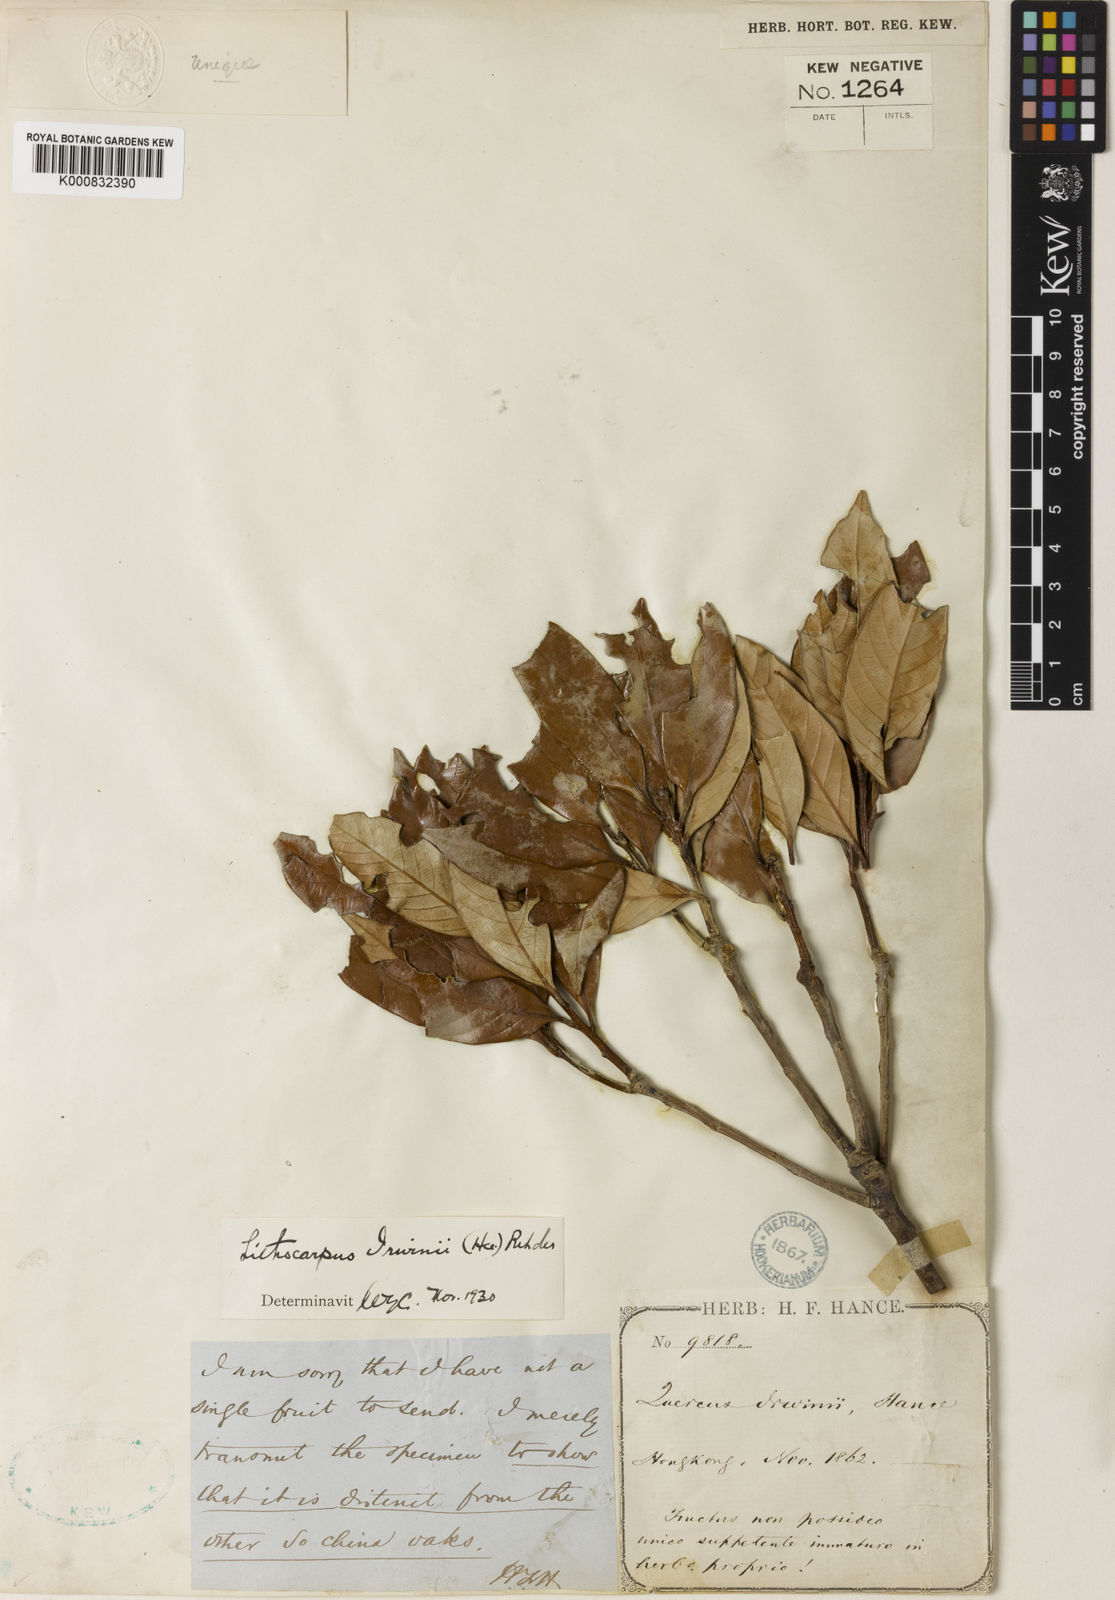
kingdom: Plantae
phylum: Tracheophyta
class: Magnoliopsida
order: Fagales
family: Fagaceae
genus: Lithocarpus
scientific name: Lithocarpus irwinii
